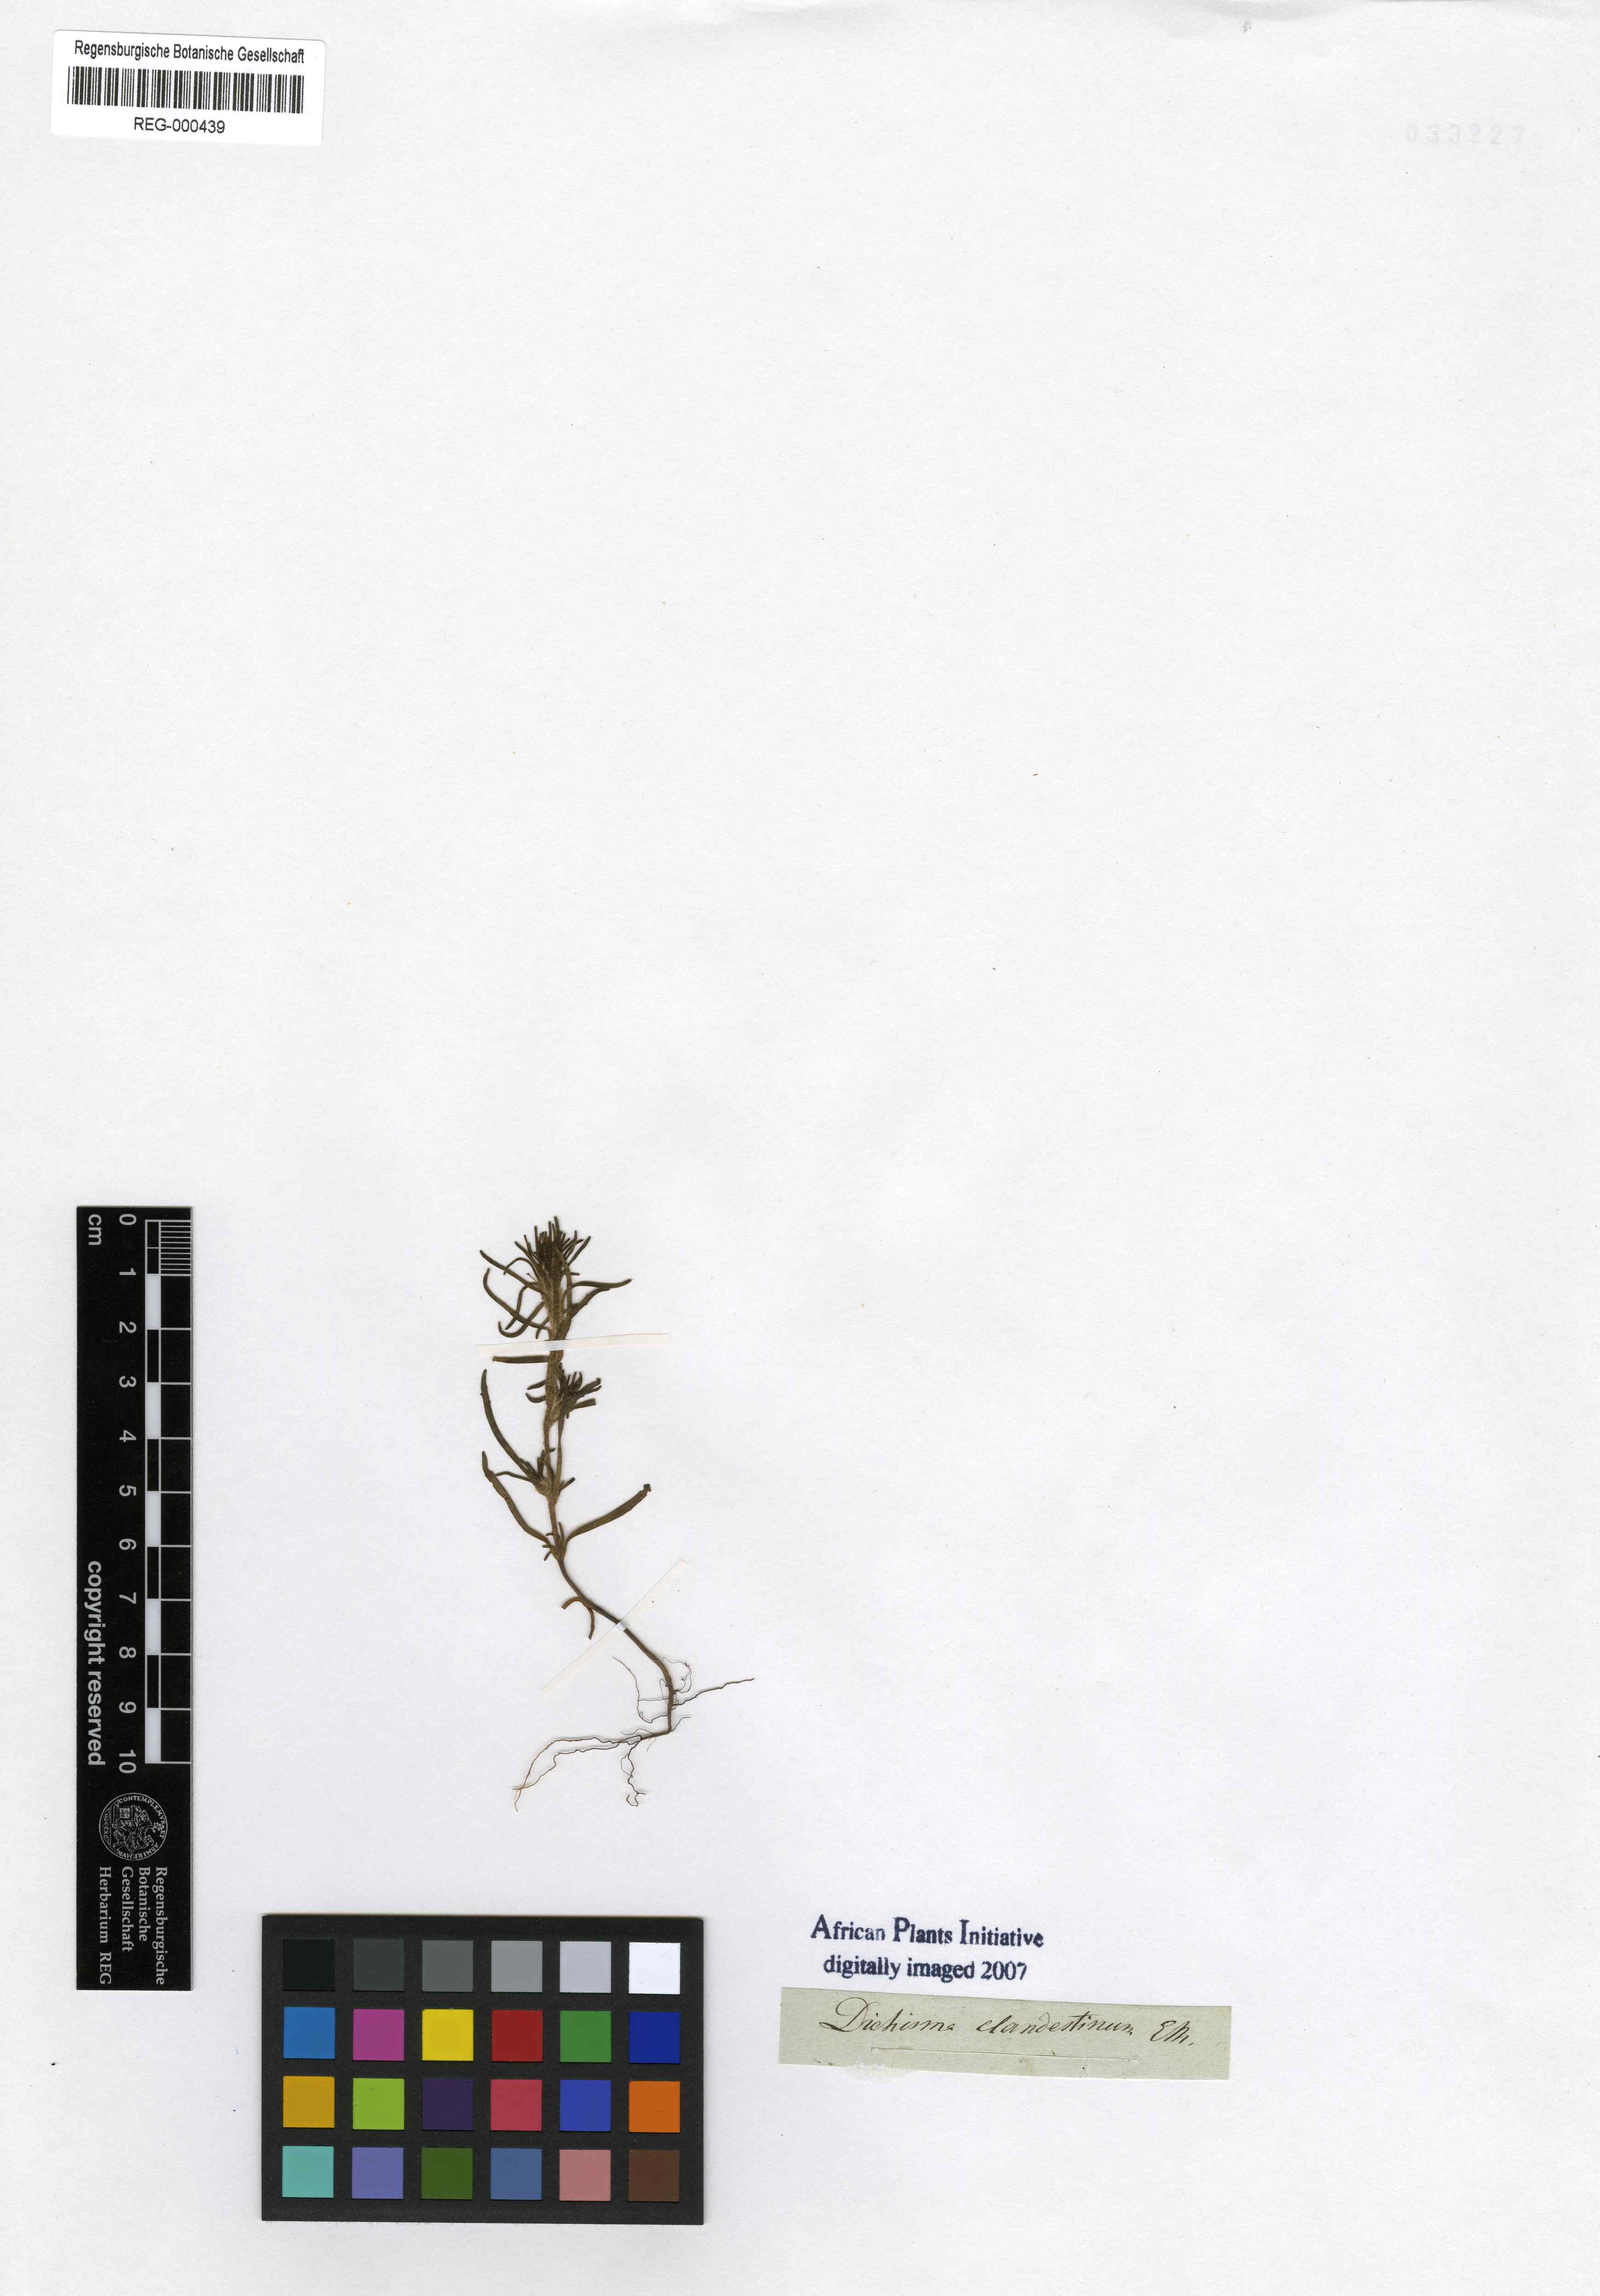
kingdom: Plantae
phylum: Tracheophyta
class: Magnoliopsida
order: Lamiales
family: Scrophulariaceae
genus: Dischisma
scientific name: Dischisma clandestinum
